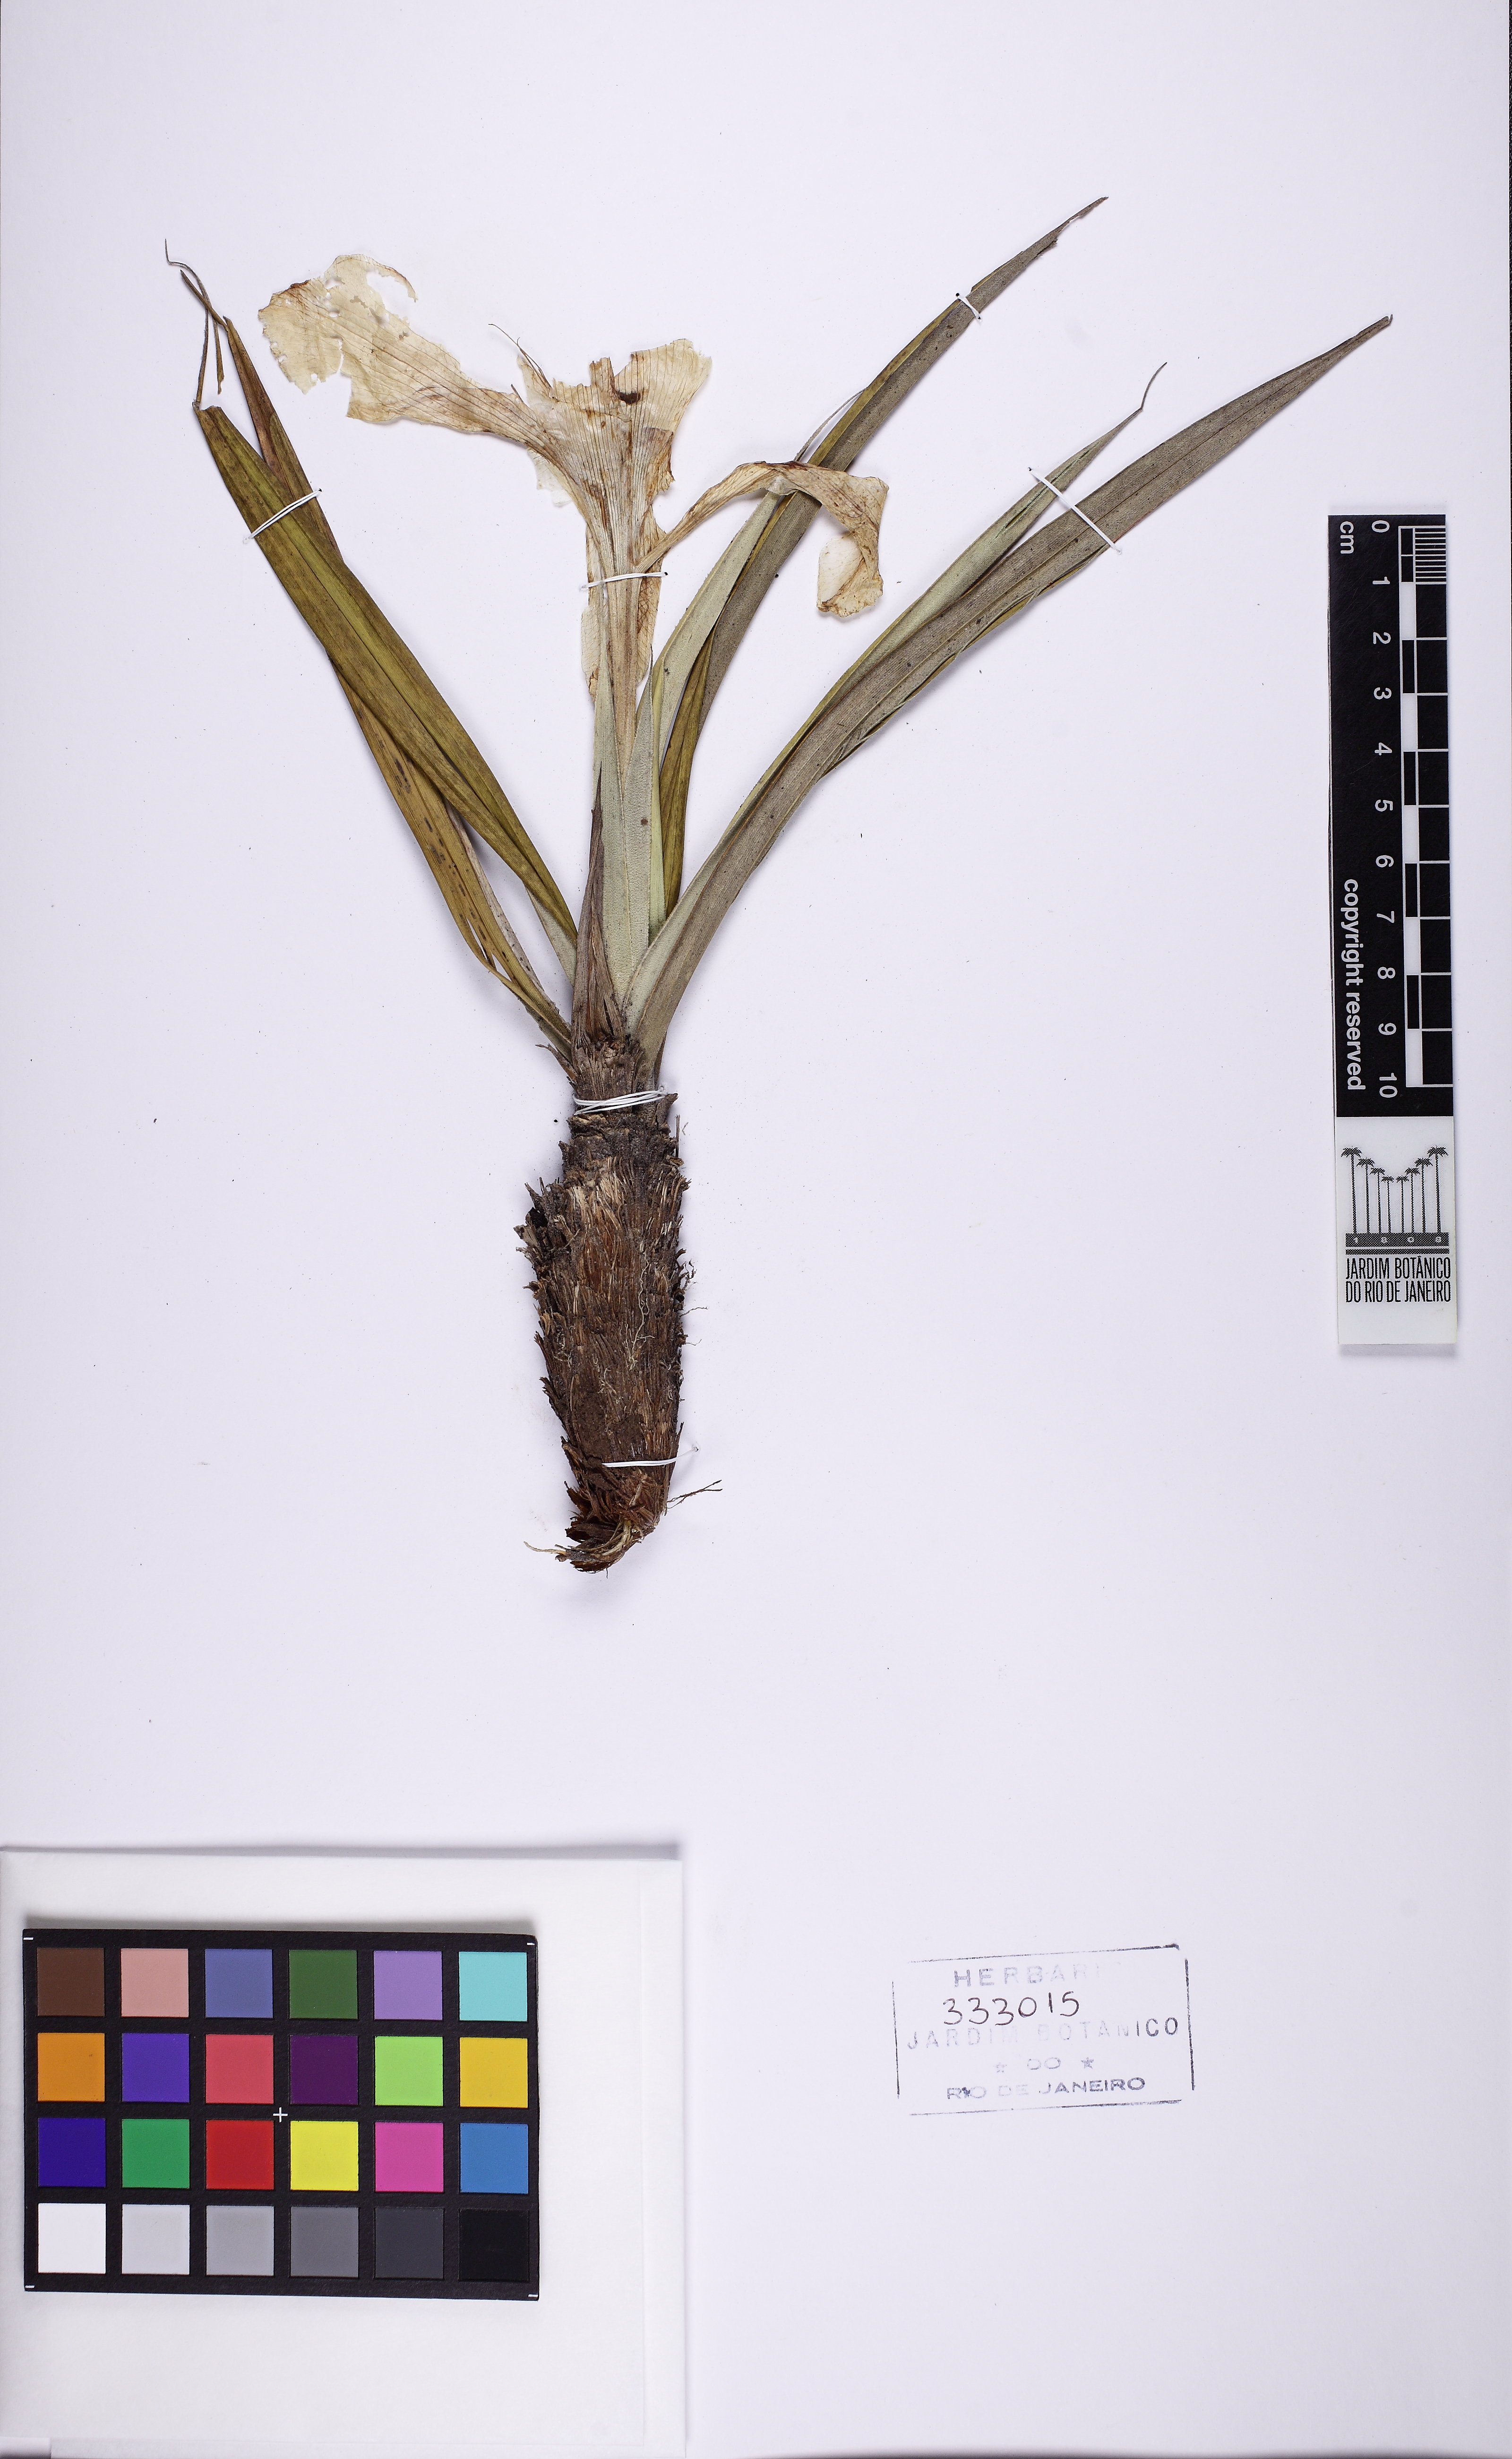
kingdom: Plantae
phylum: Tracheophyta
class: Liliopsida
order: Pandanales
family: Velloziaceae
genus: Vellozia
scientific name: Vellozia hirsuta
